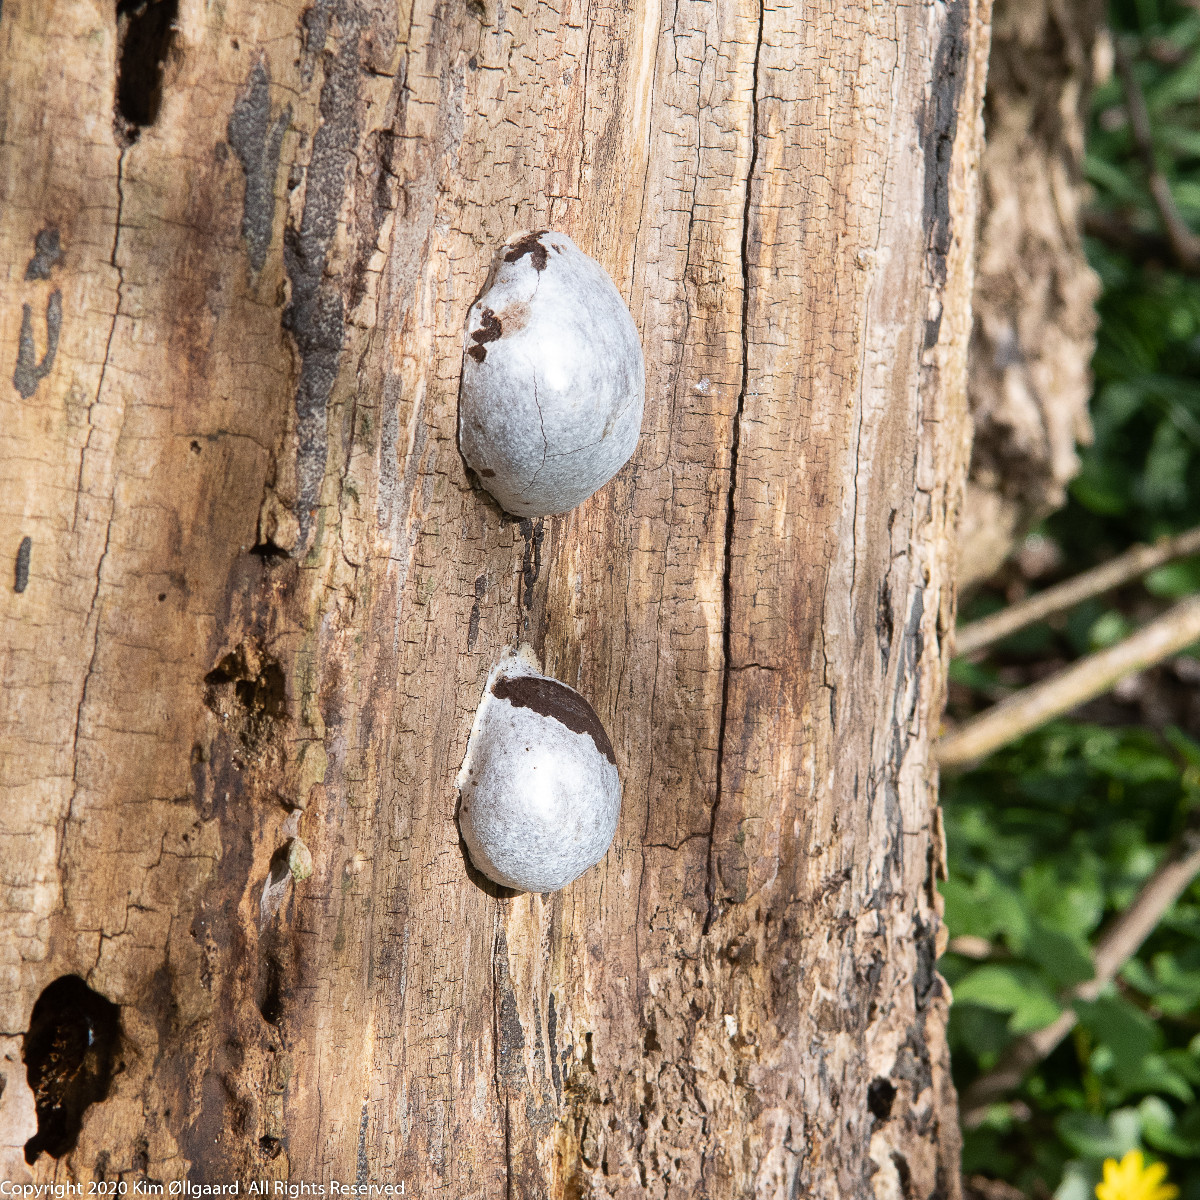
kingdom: Protozoa
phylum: Mycetozoa
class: Myxomycetes
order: Cribrariales
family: Tubiferaceae
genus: Reticularia
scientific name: Reticularia lycoperdon
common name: skinnende støvpude
